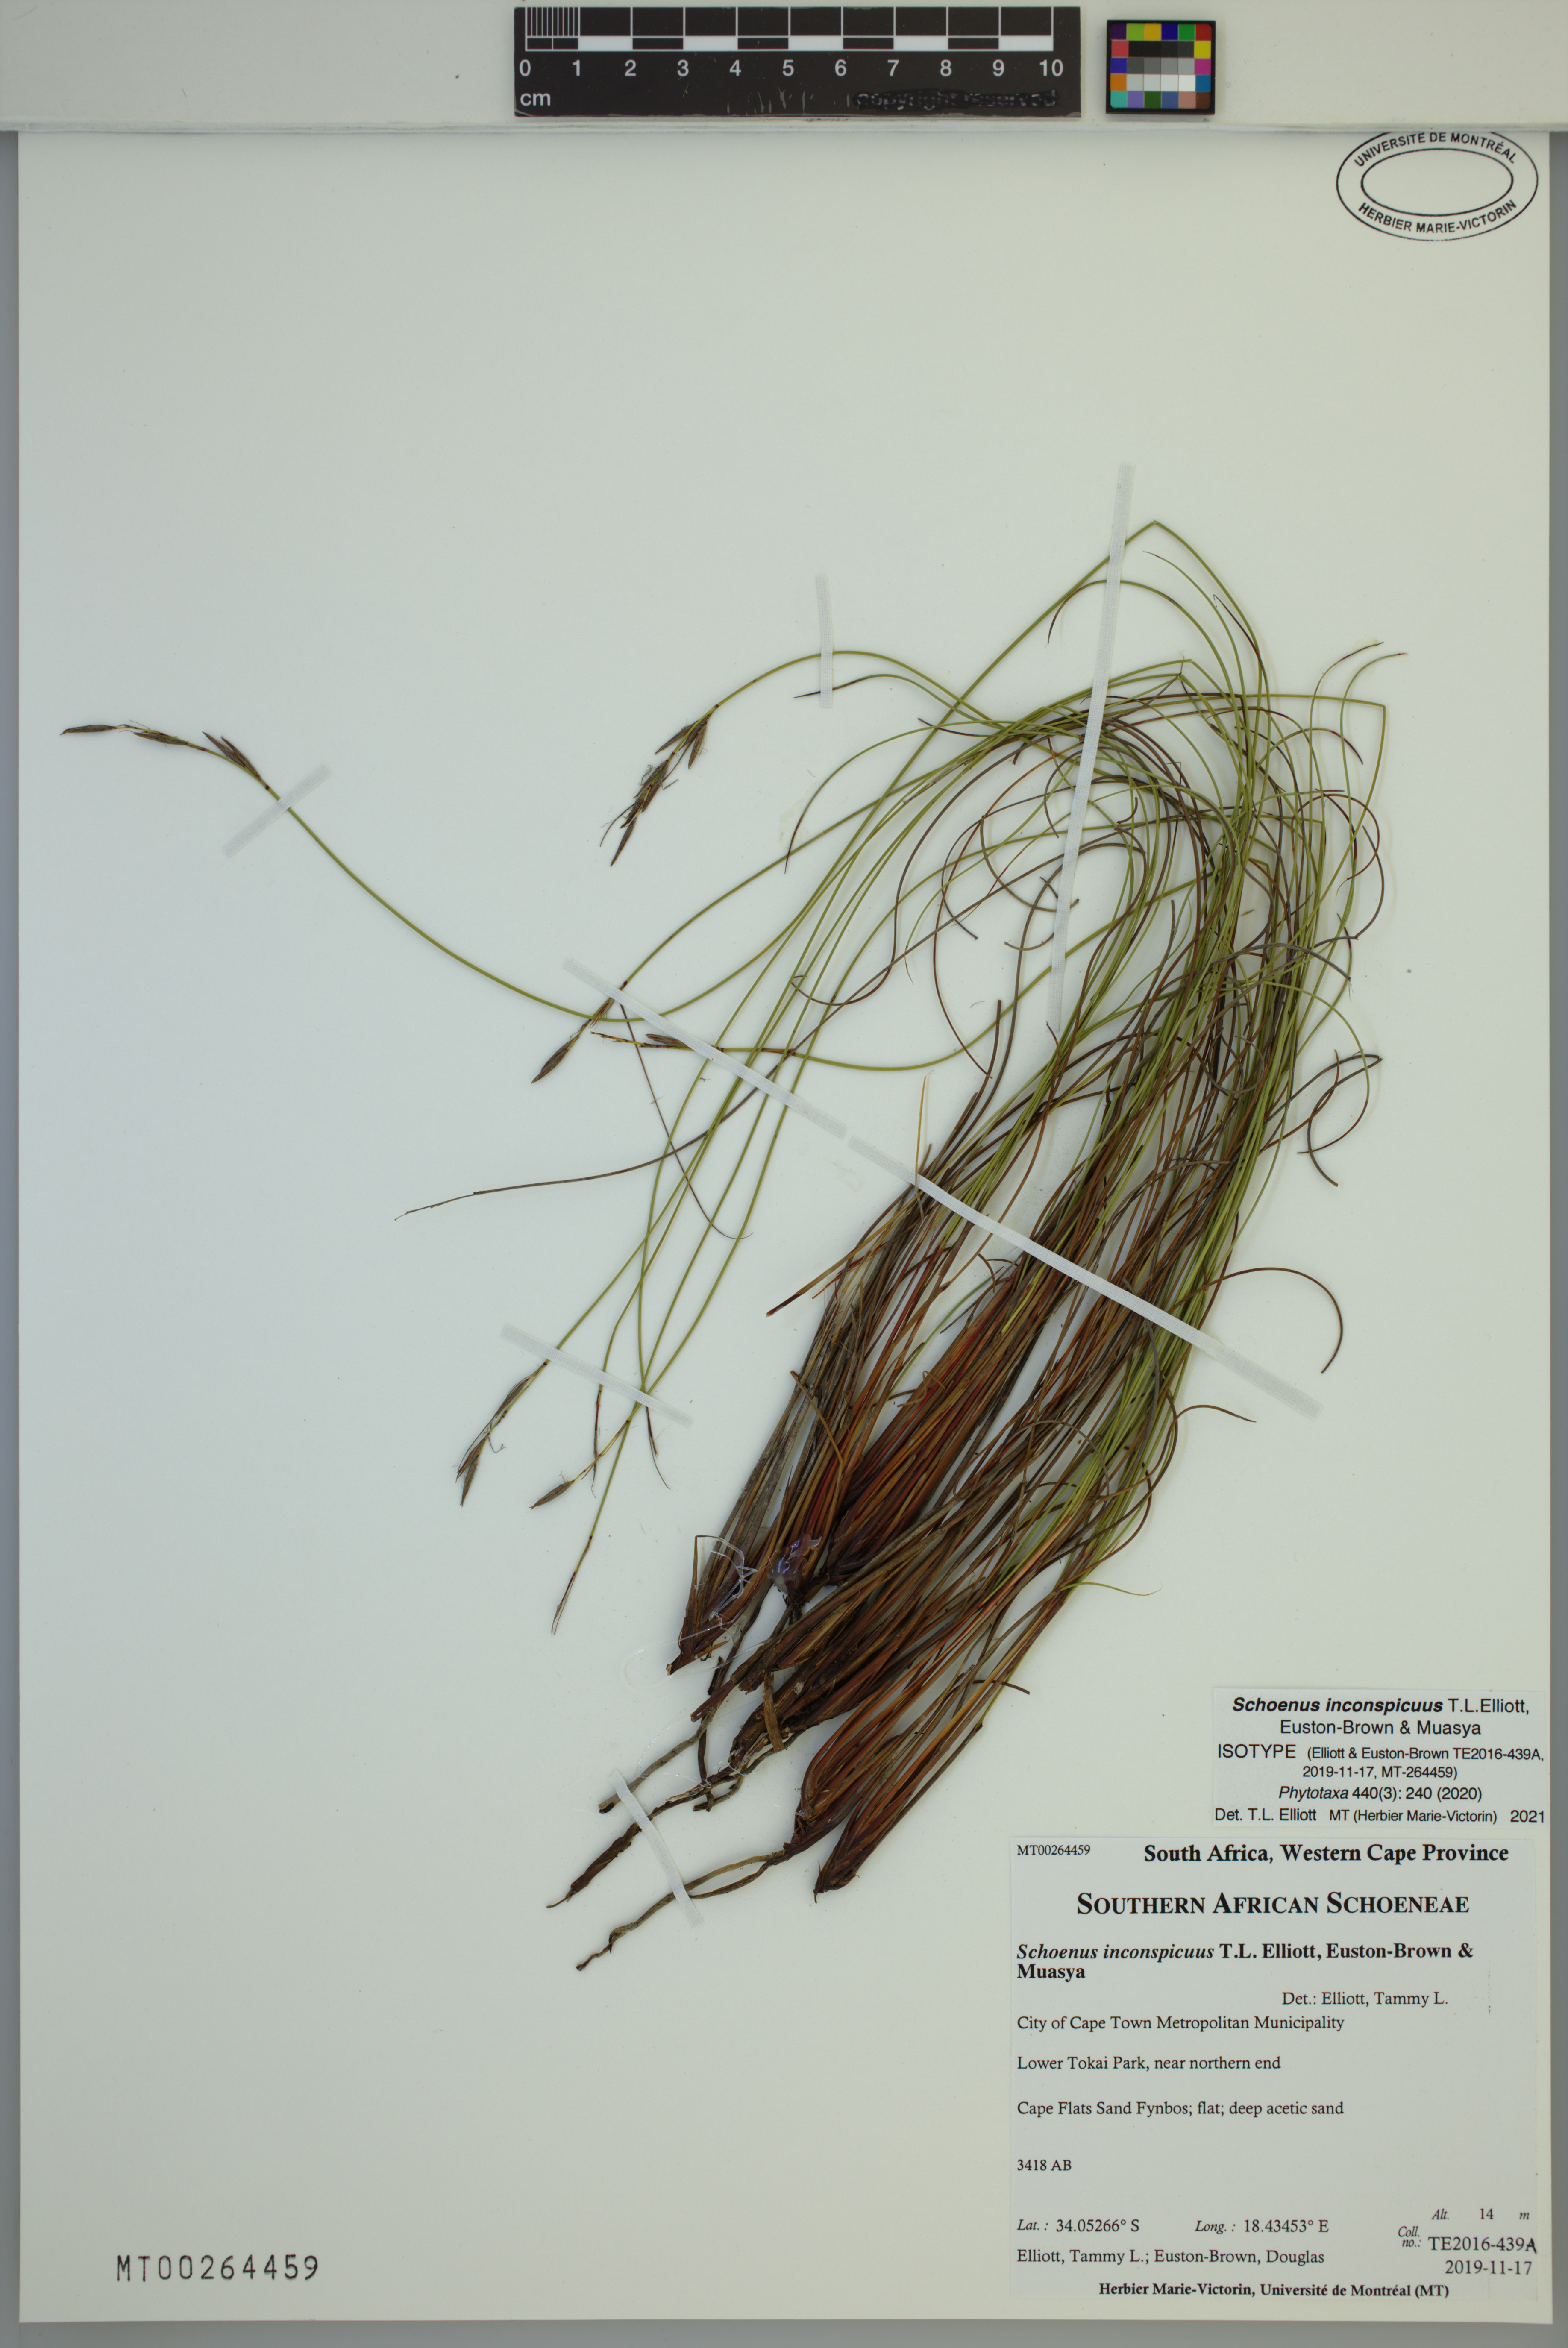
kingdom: Plantae
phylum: Tracheophyta
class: Liliopsida
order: Poales
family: Cyperaceae
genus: Schoenus
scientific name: Schoenus inconspicuus
